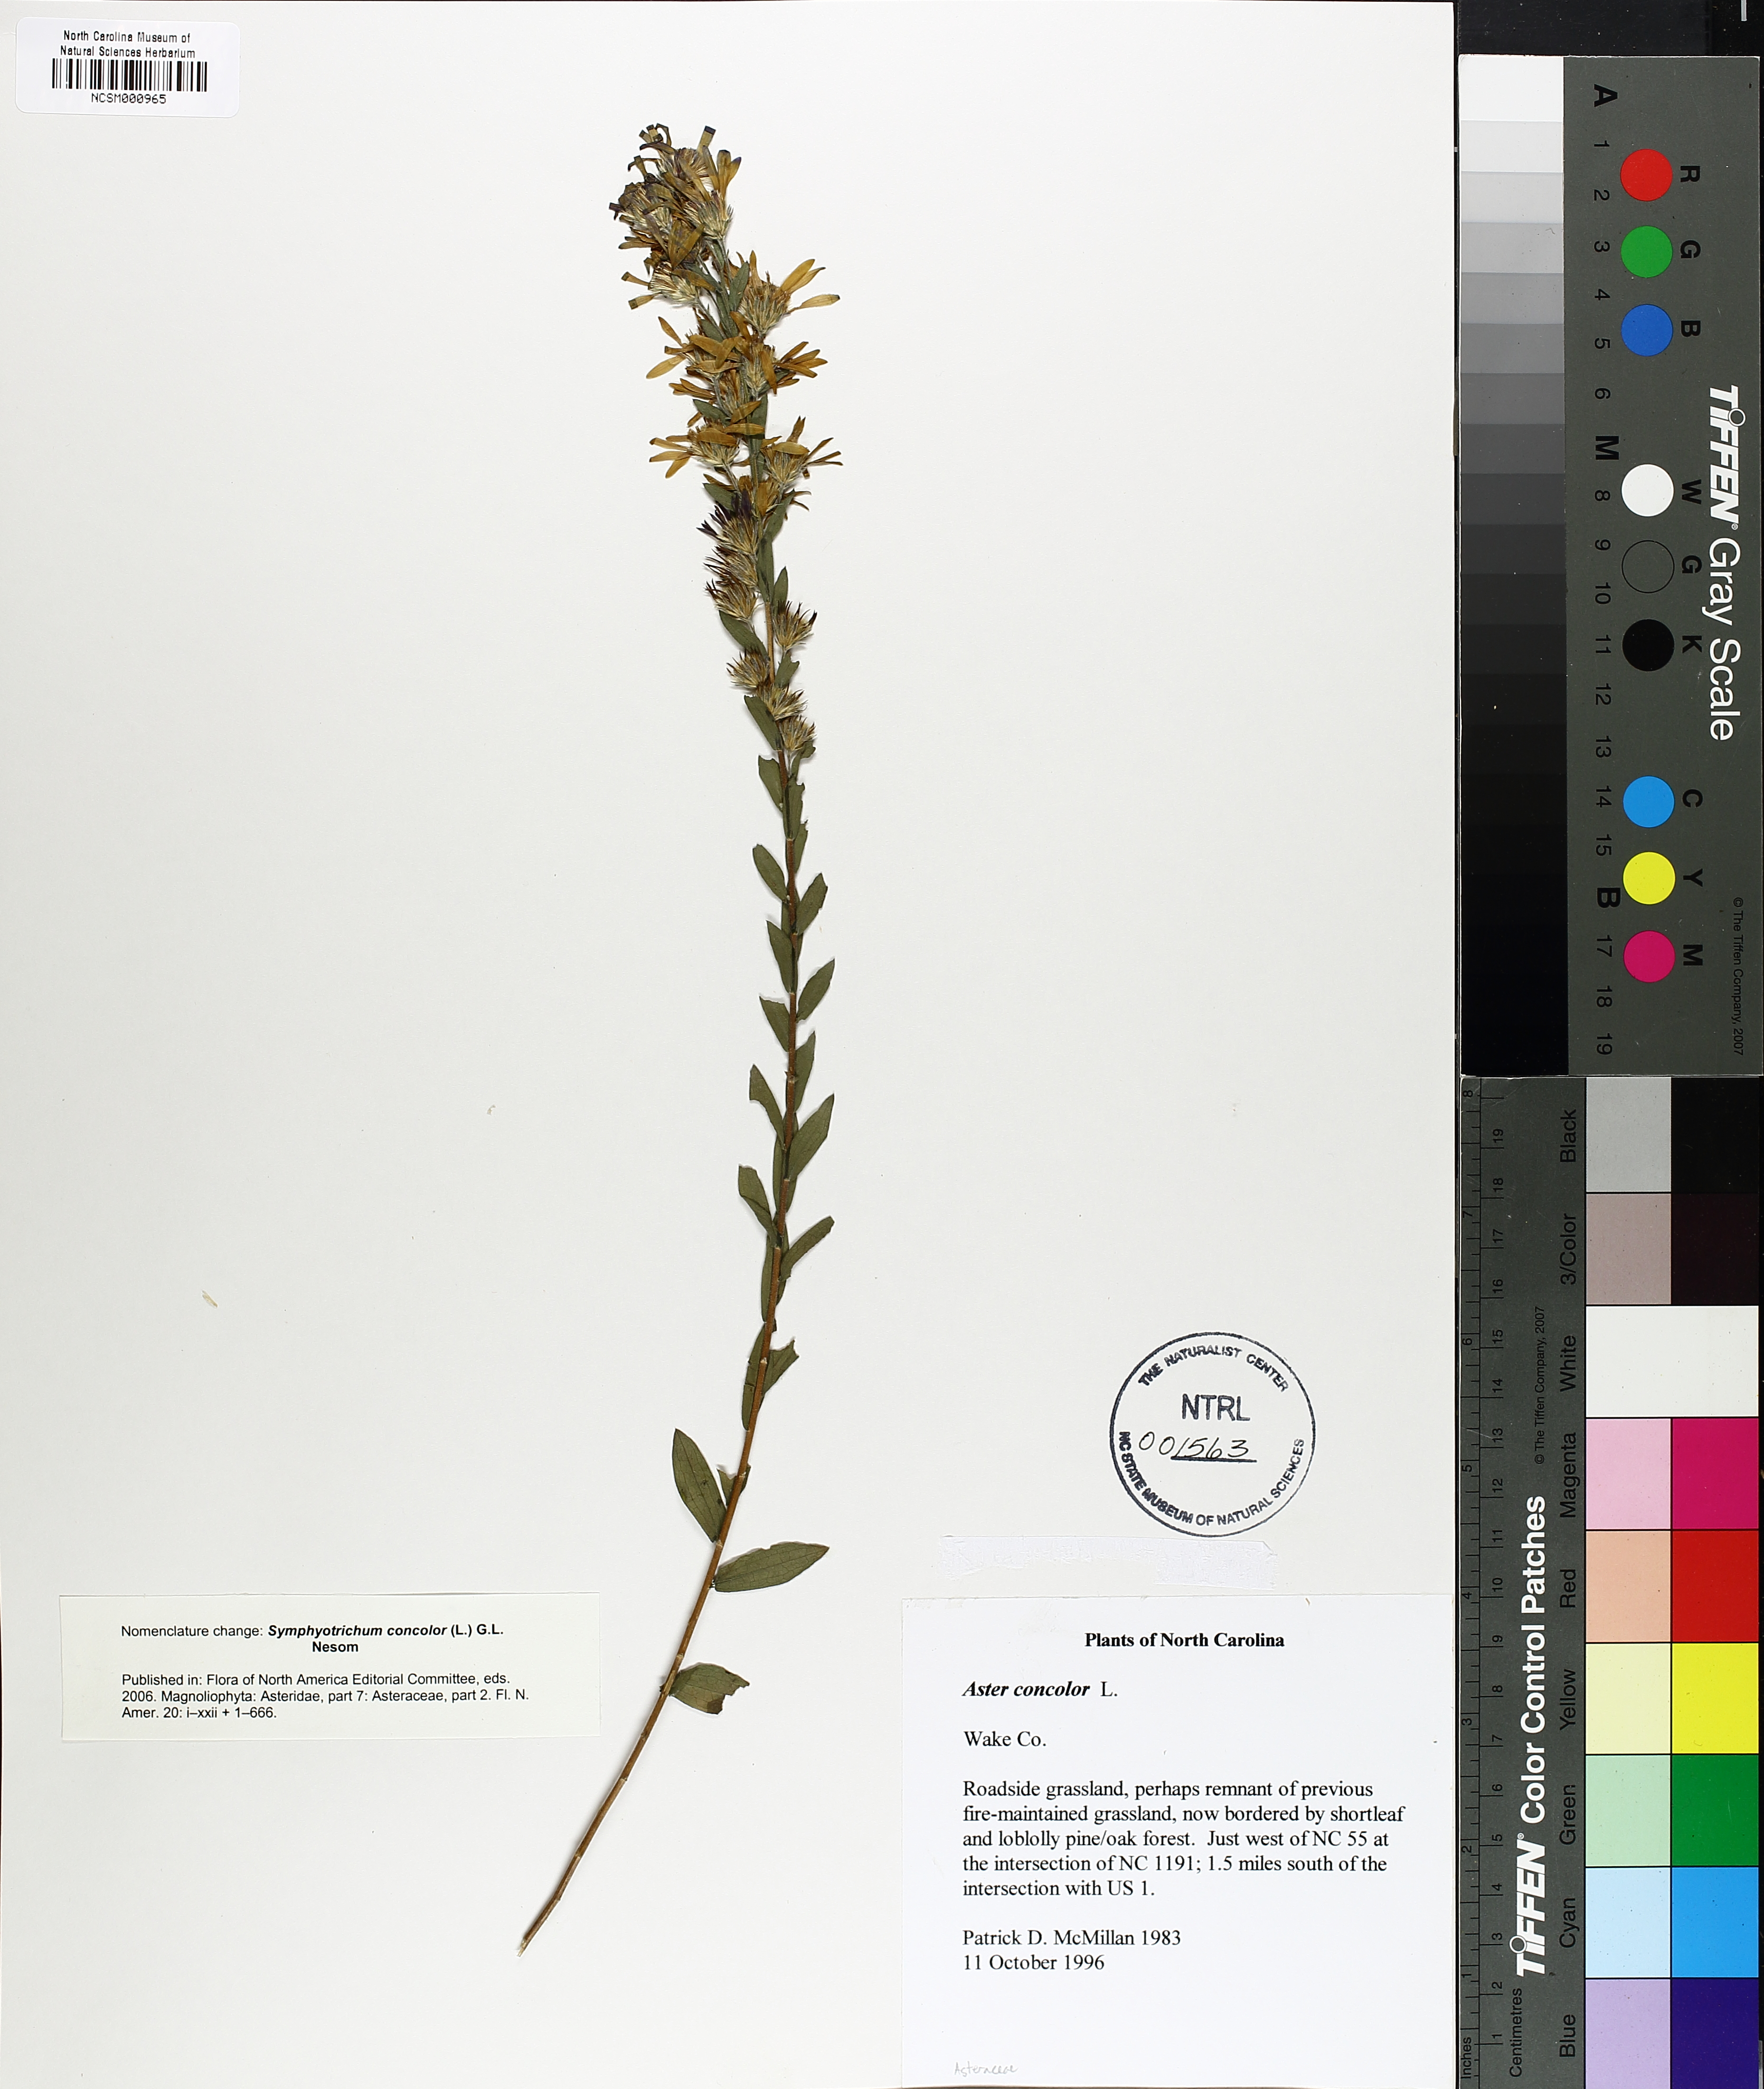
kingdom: Plantae
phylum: Tracheophyta
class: Magnoliopsida
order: Asterales
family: Asteraceae
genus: Symphyotrichum
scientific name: Symphyotrichum concolor
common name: Eastern silver aster
